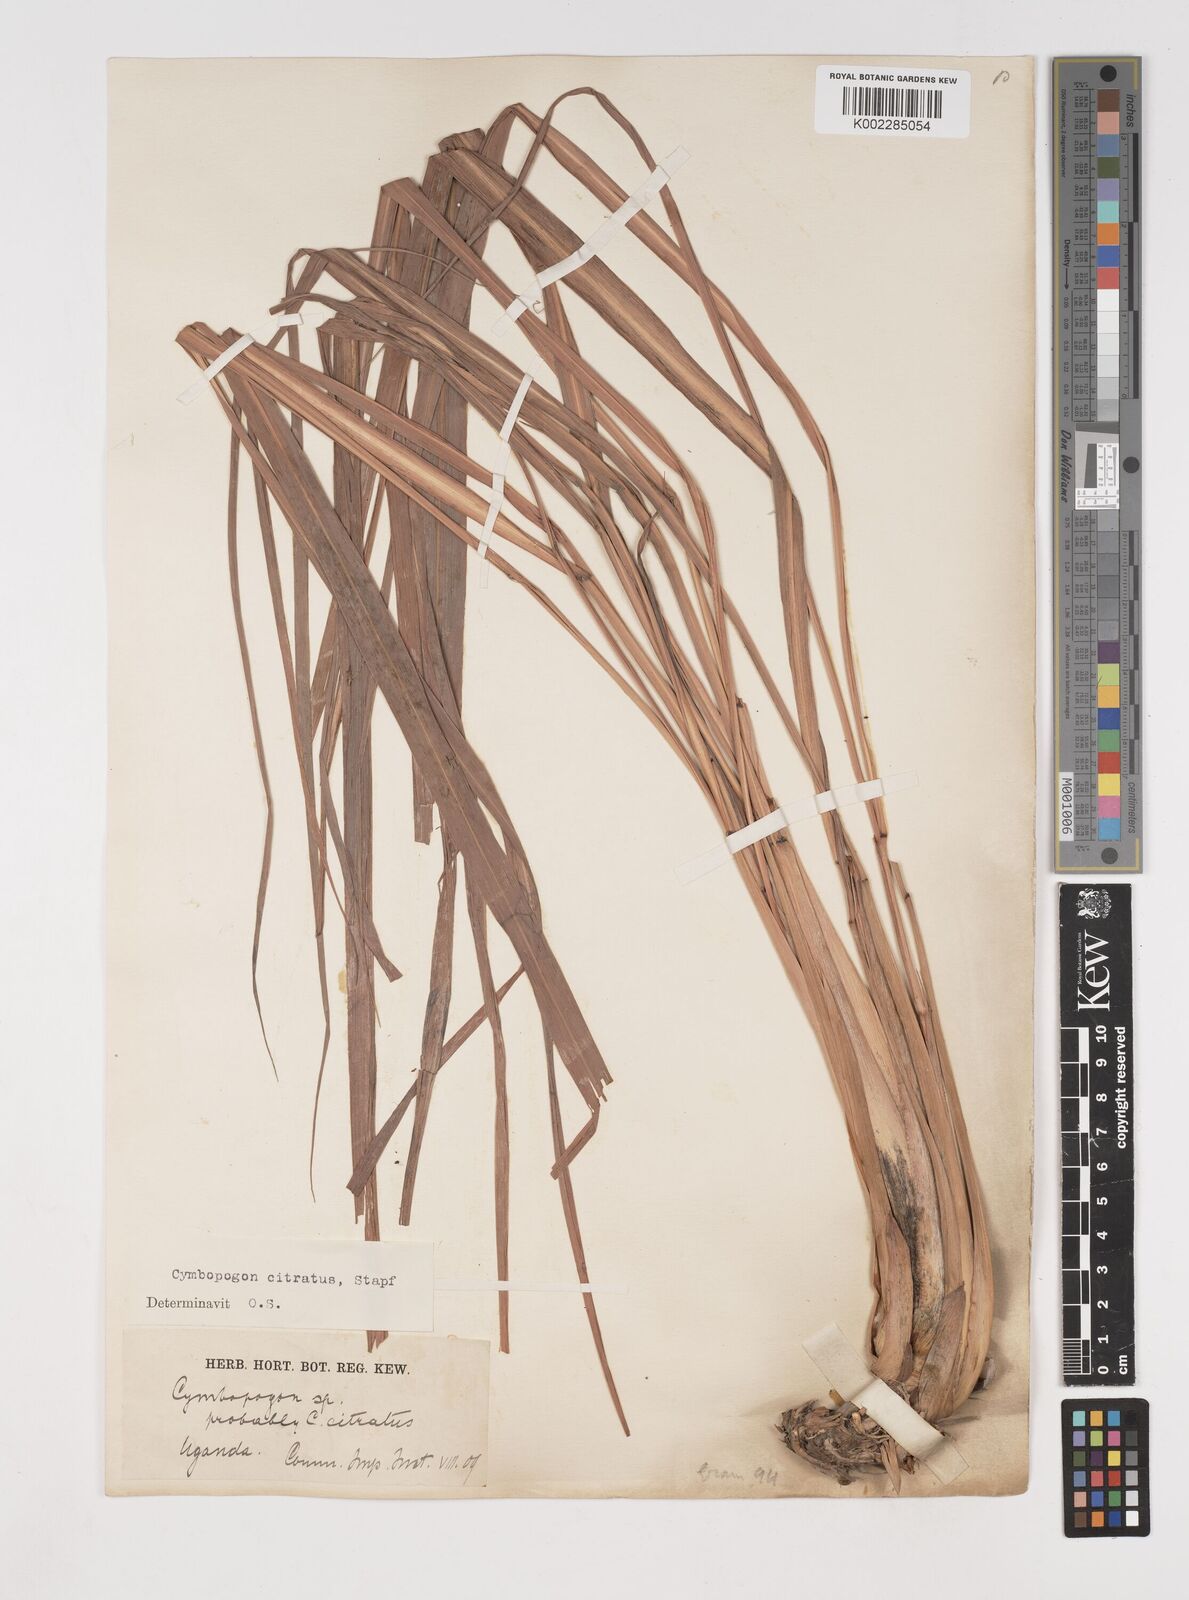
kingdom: Plantae
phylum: Tracheophyta
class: Liliopsida
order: Poales
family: Poaceae
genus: Cymbopogon
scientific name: Cymbopogon citratus
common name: Lemon grass
